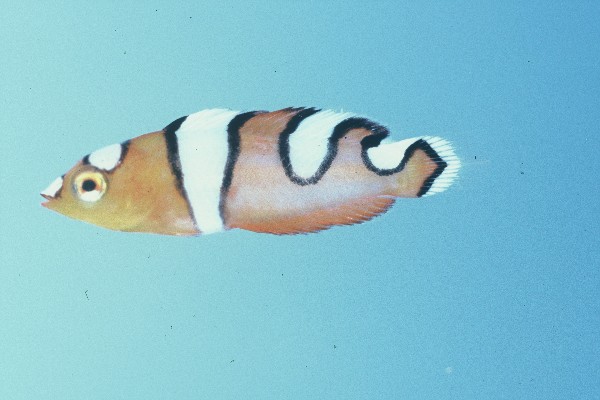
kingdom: Animalia
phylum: Chordata
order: Perciformes
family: Labridae
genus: Coris
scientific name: Coris formosa
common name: Queen coris
